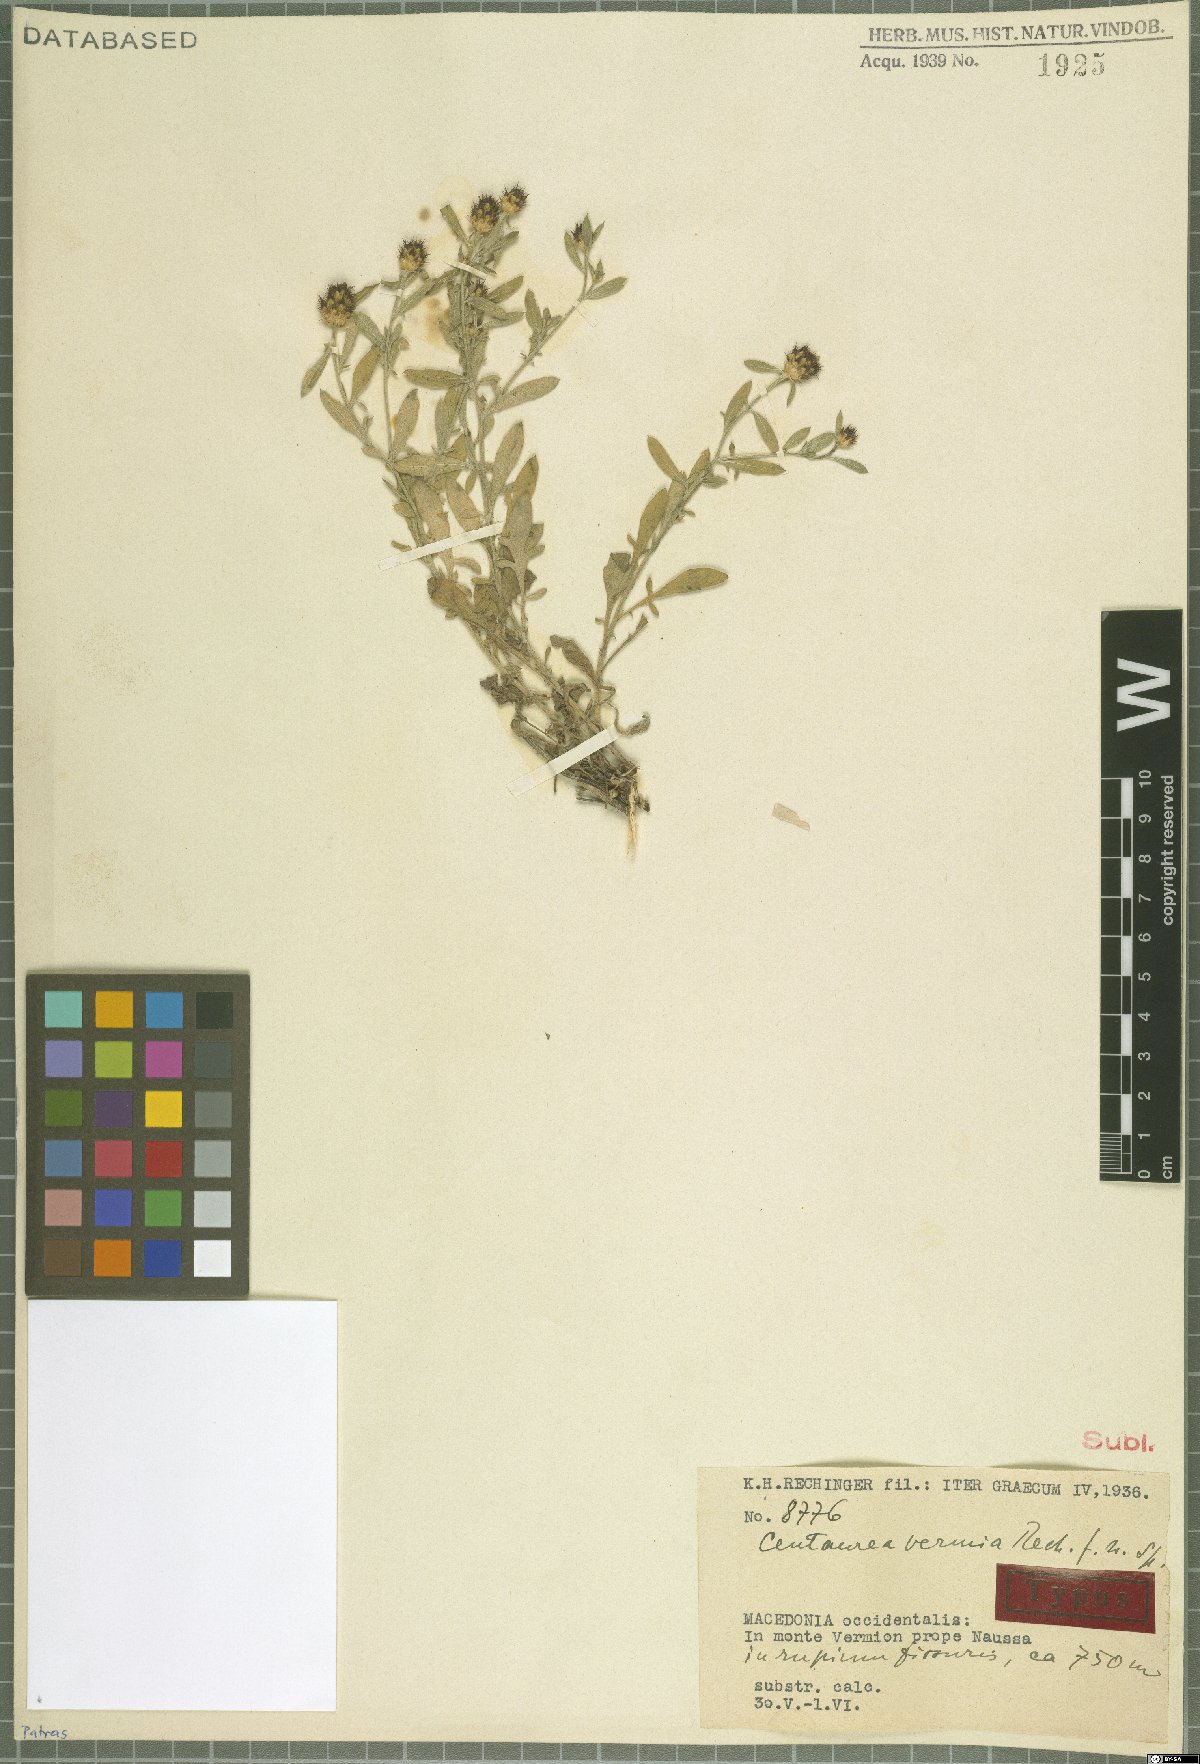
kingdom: Plantae
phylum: Tracheophyta
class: Magnoliopsida
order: Asterales
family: Asteraceae
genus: Centaurea
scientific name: Centaurea vermia
